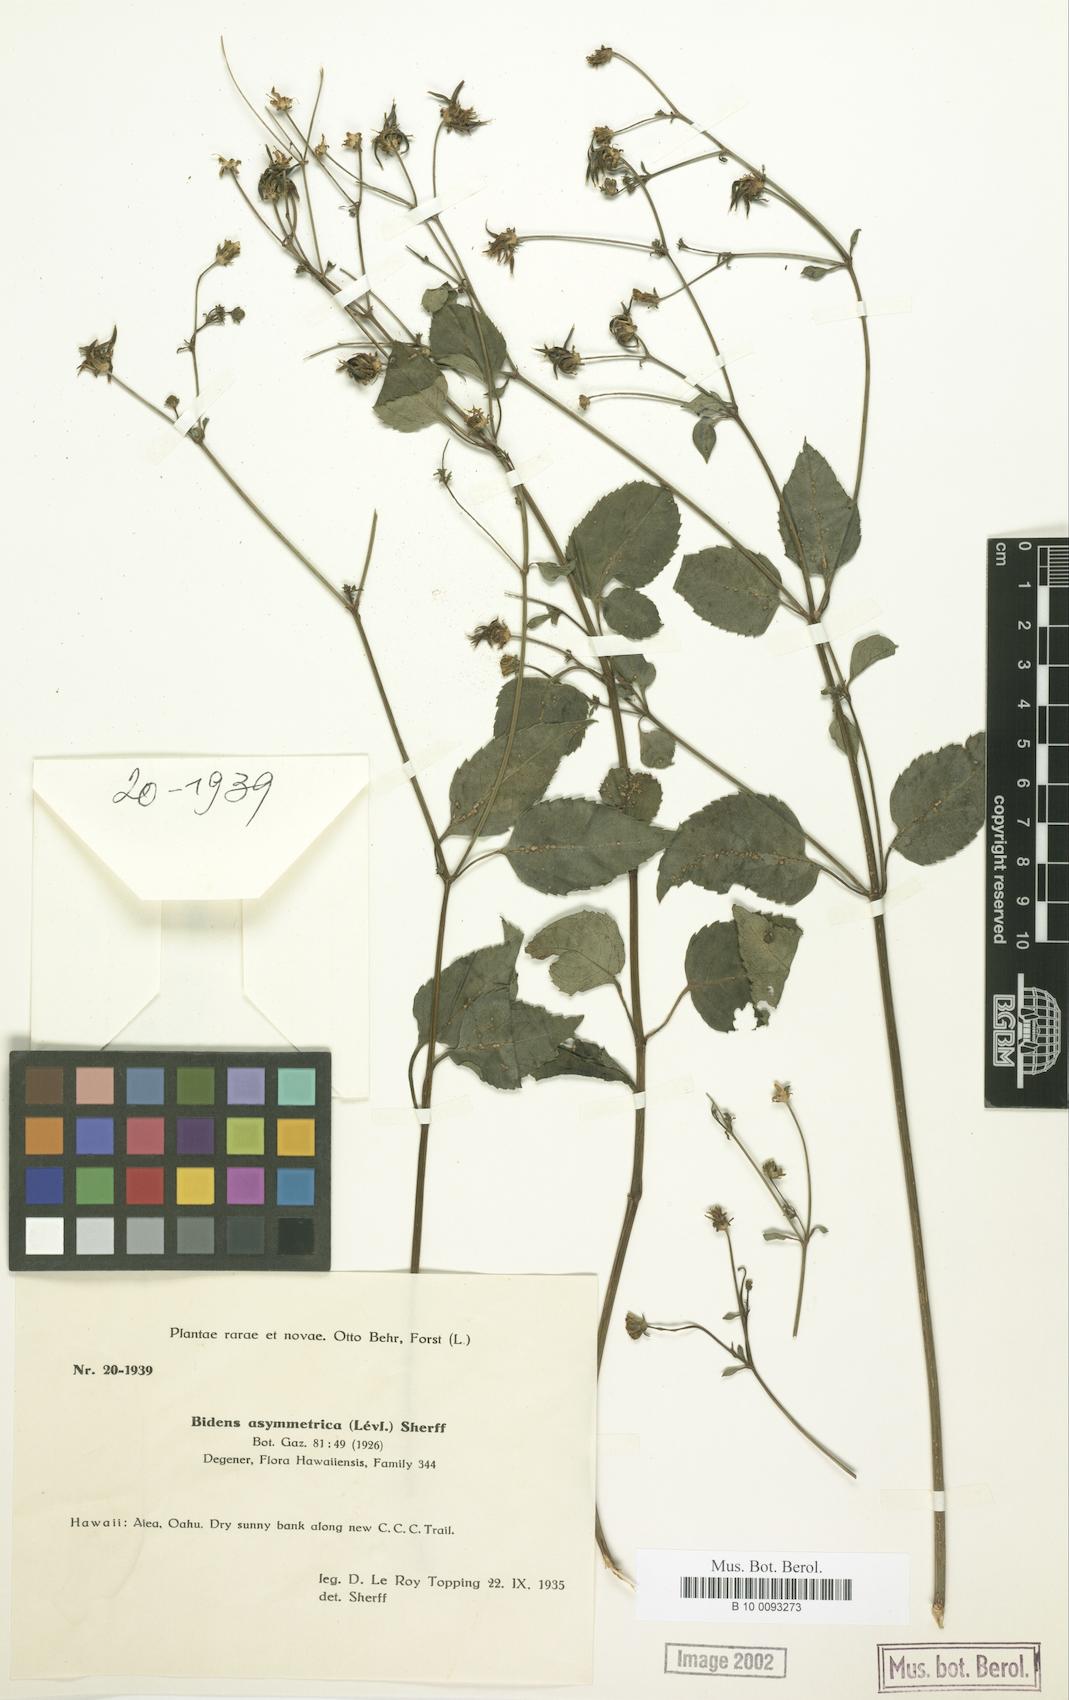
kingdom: Plantae
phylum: Tracheophyta
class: Magnoliopsida
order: Asterales
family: Asteraceae
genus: Bidens
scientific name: Bidens asymmetrica
